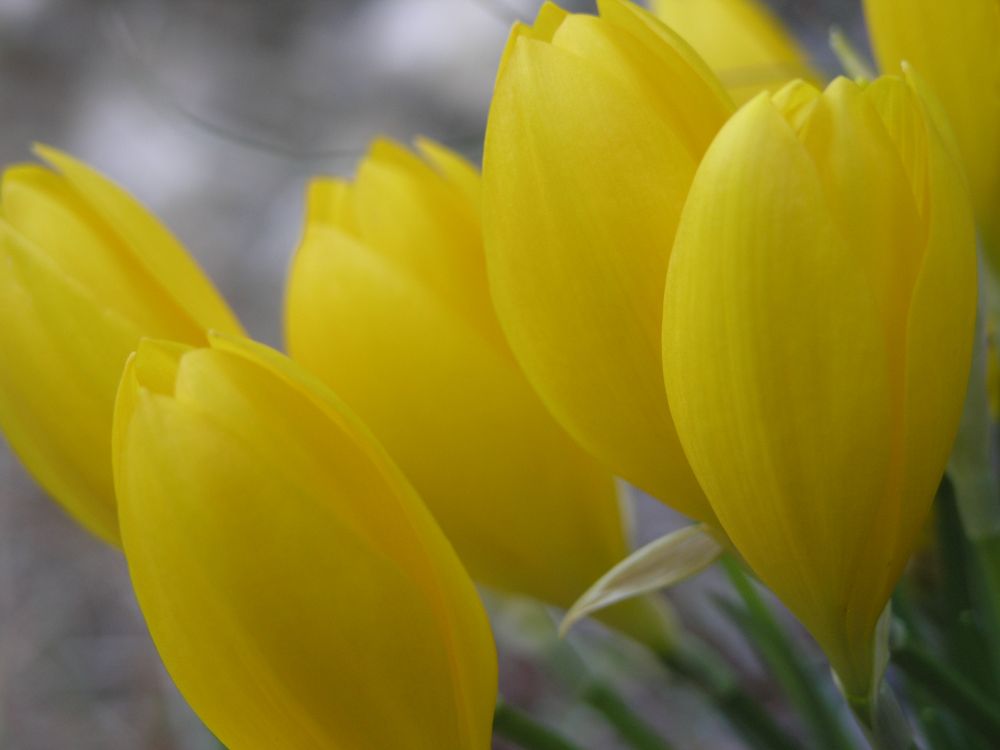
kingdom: Plantae
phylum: Tracheophyta
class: Liliopsida
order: Asparagales
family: Amaryllidaceae
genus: Sternbergia
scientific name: Sternbergia lutea
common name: Winter daffodil
